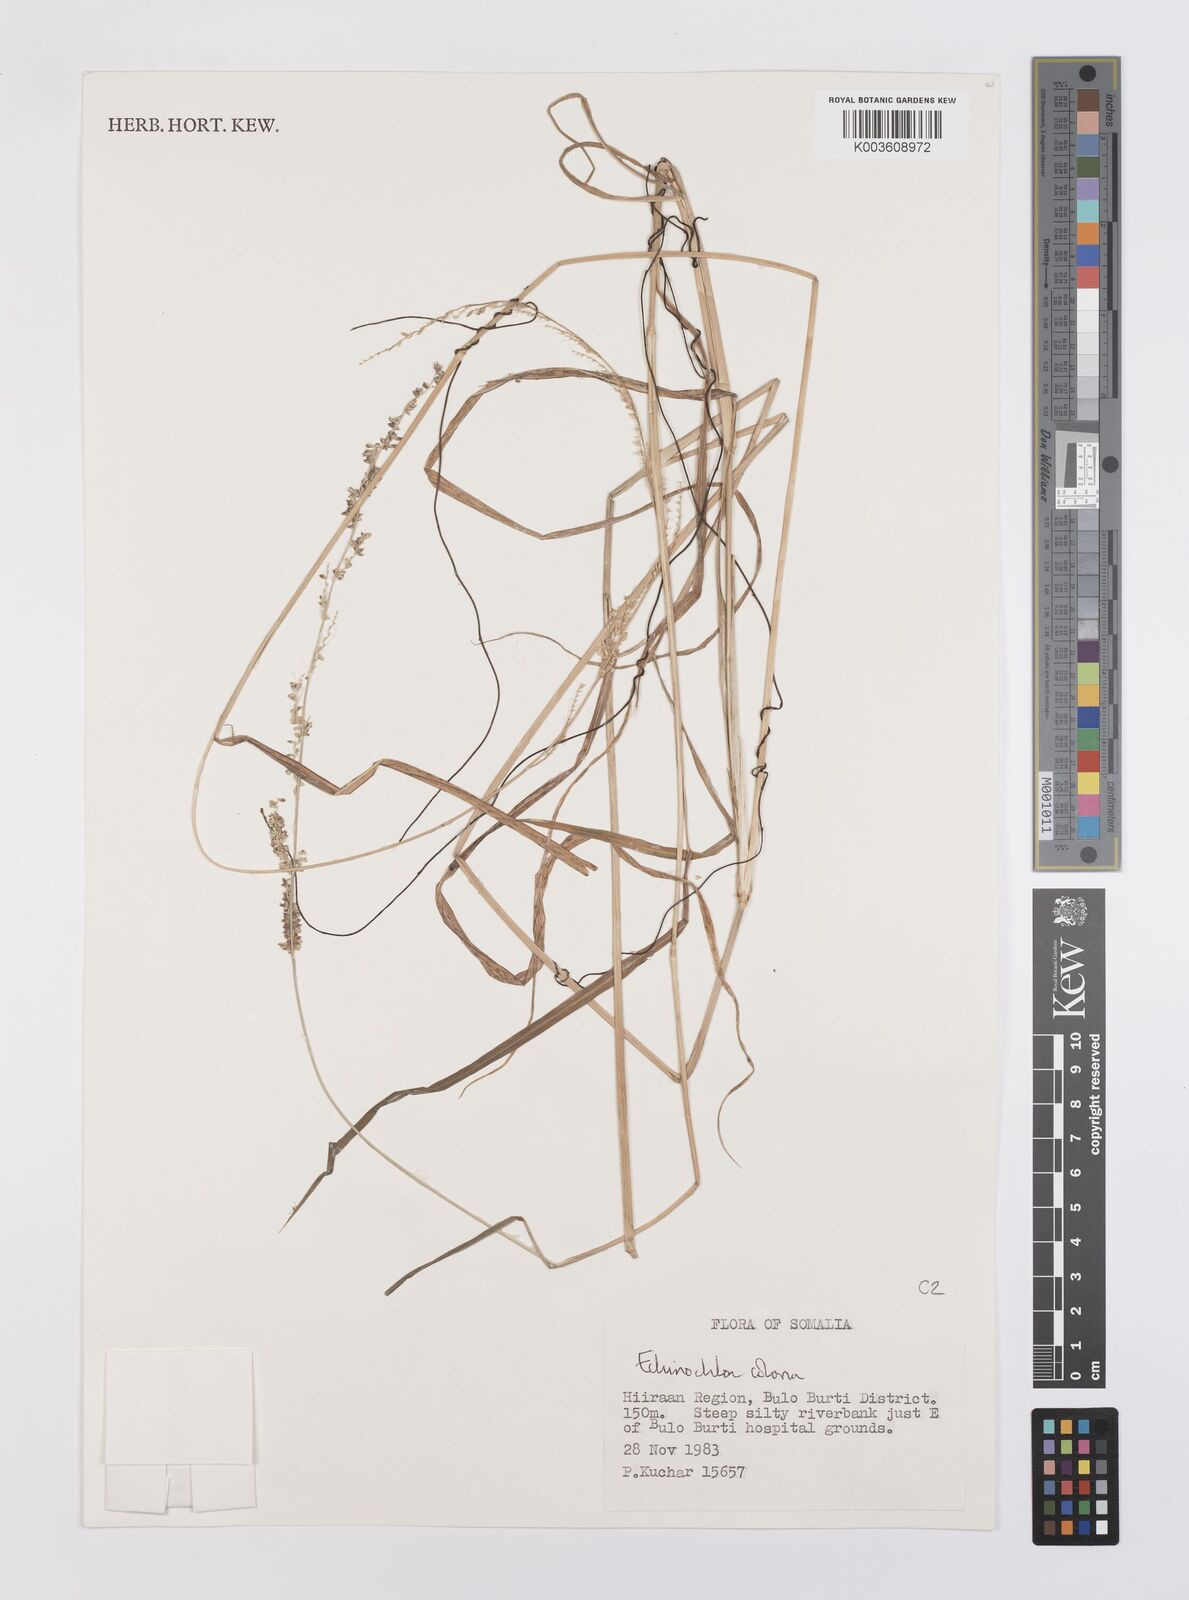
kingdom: Plantae
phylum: Tracheophyta
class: Liliopsida
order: Poales
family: Poaceae
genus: Echinochloa
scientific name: Echinochloa colonum
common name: Jungle rice
